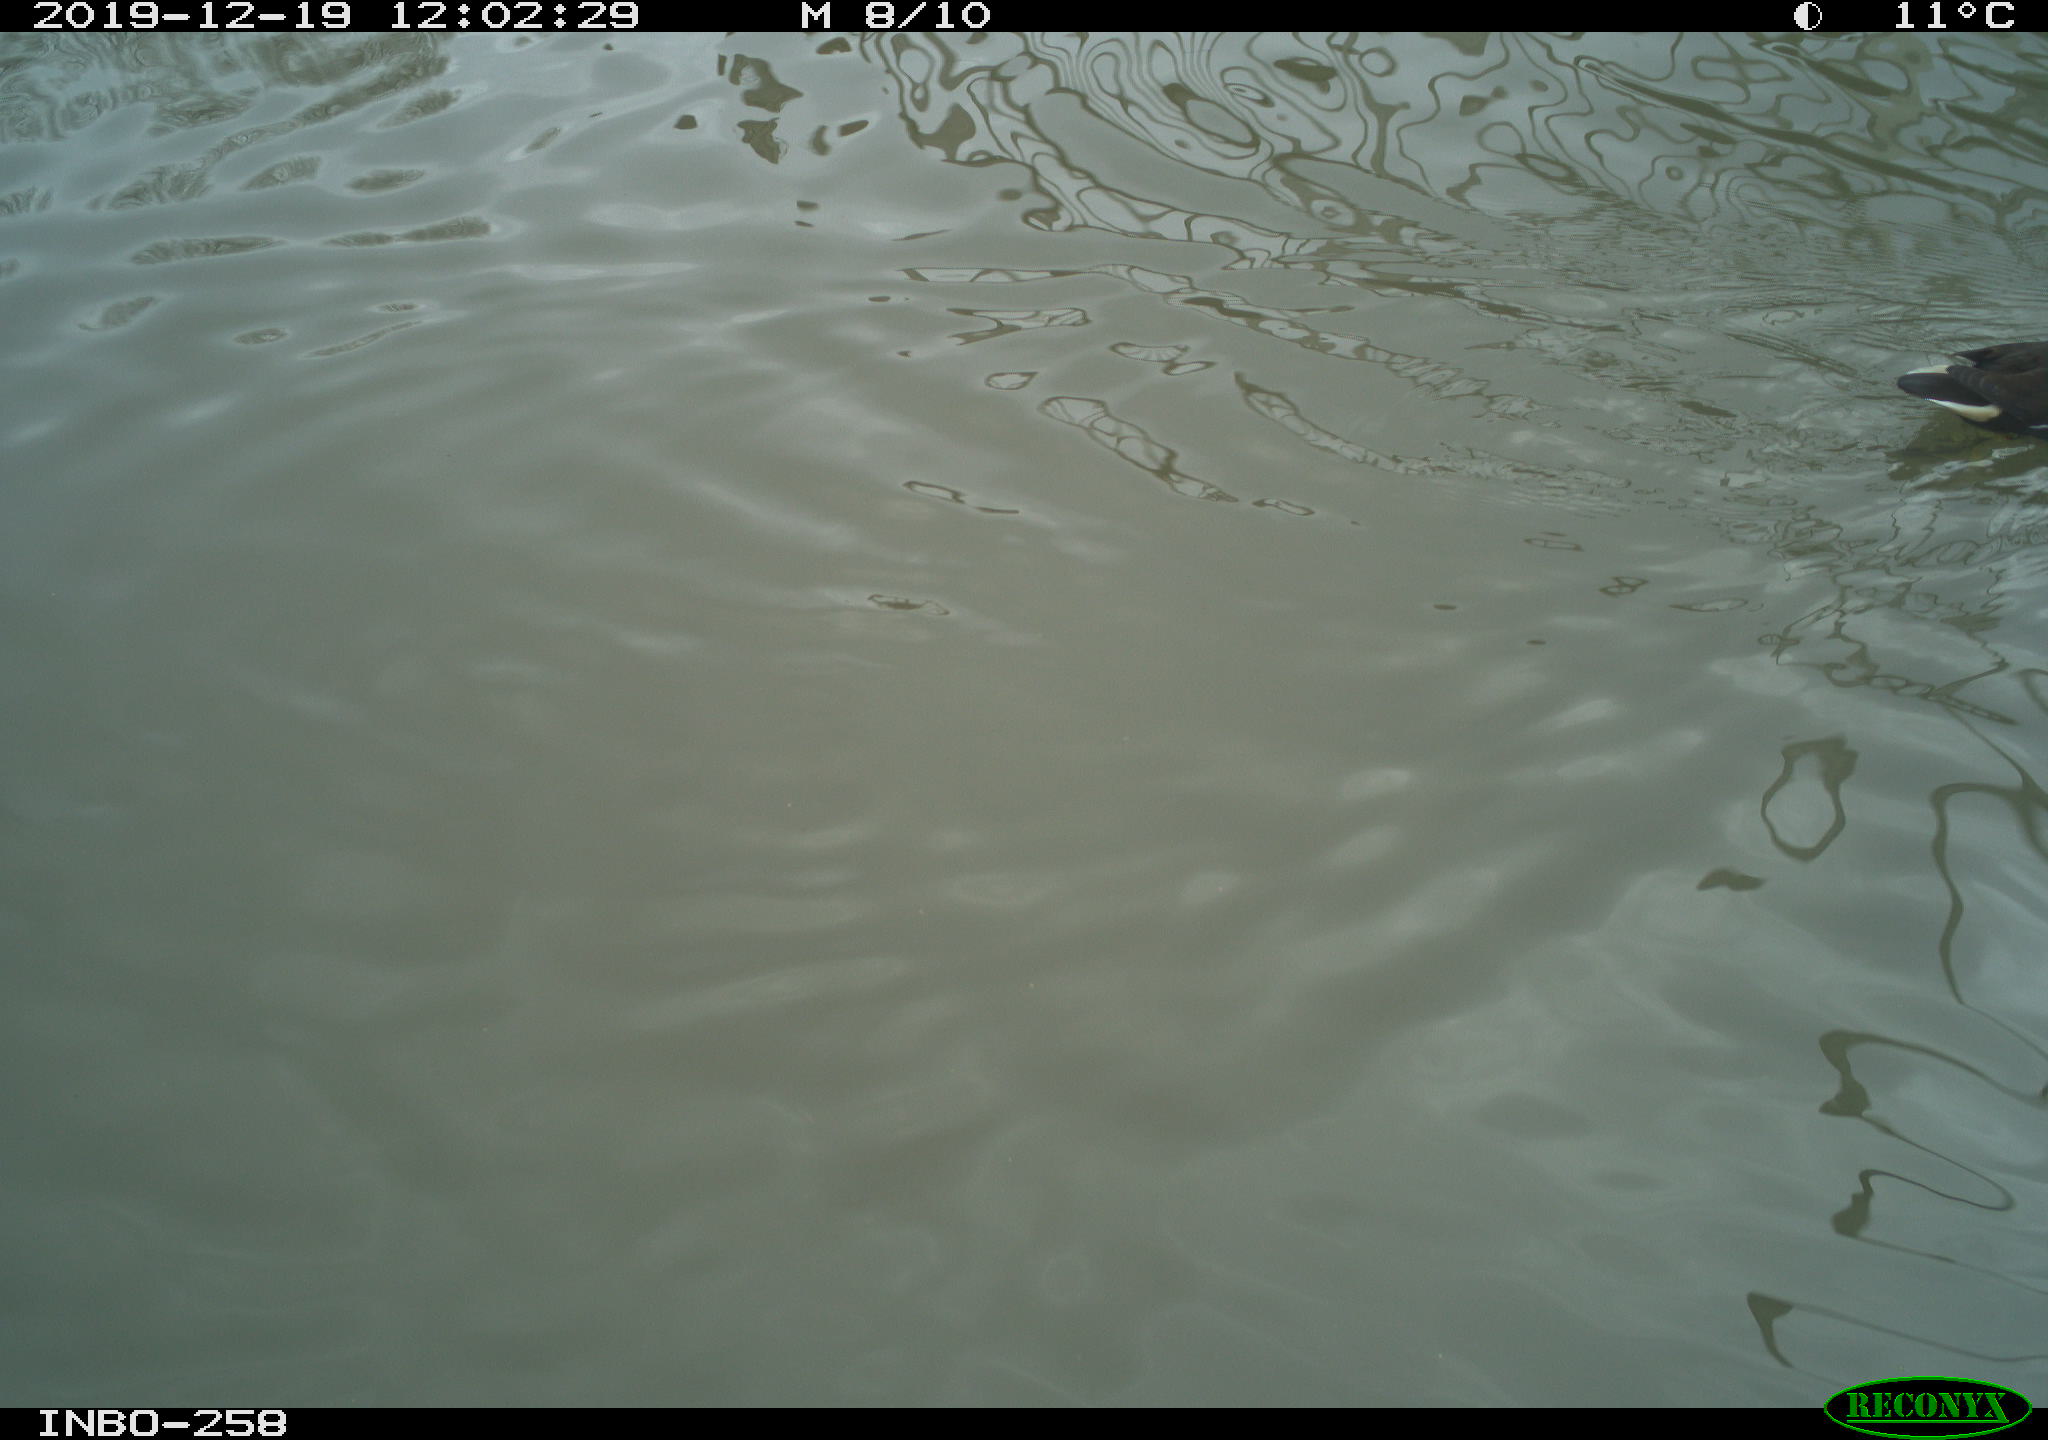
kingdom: Animalia
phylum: Chordata
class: Aves
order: Gruiformes
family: Rallidae
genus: Gallinula
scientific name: Gallinula chloropus
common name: Common moorhen
